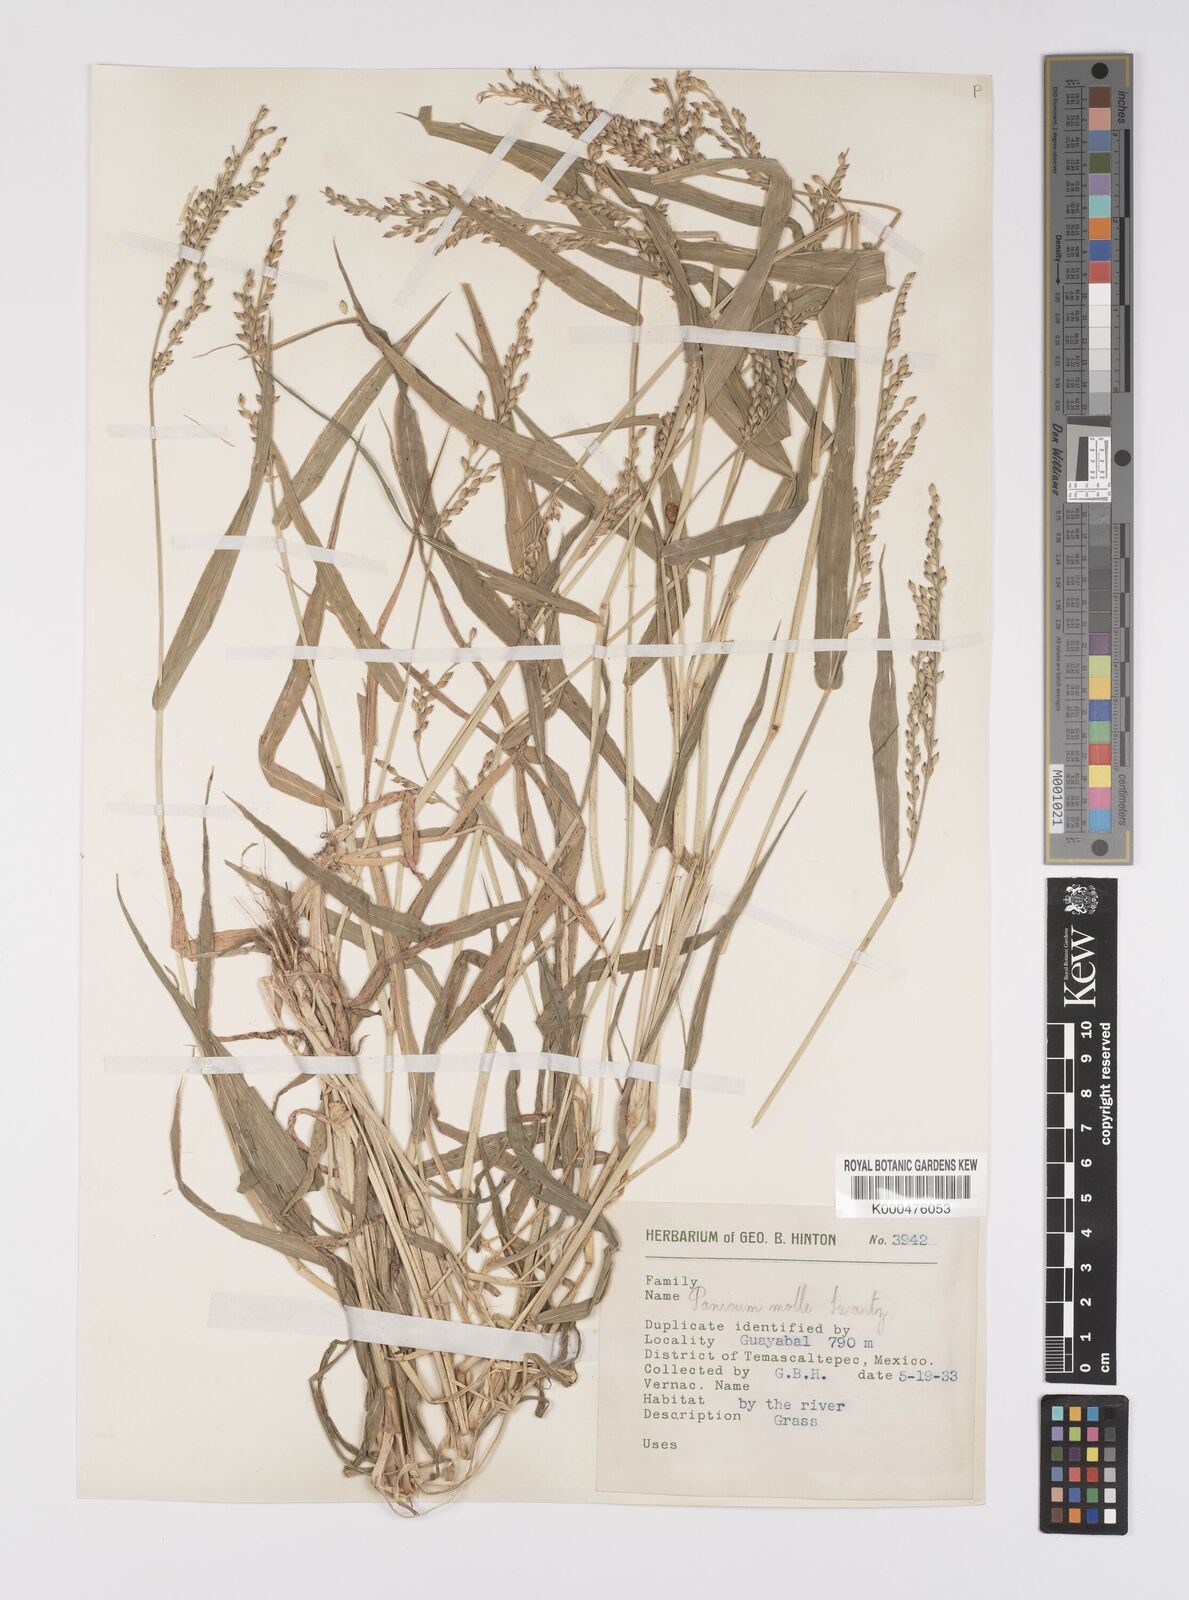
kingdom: Plantae
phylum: Tracheophyta
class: Liliopsida
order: Poales
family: Poaceae
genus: Urochloa
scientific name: Urochloa mollis
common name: Grass
